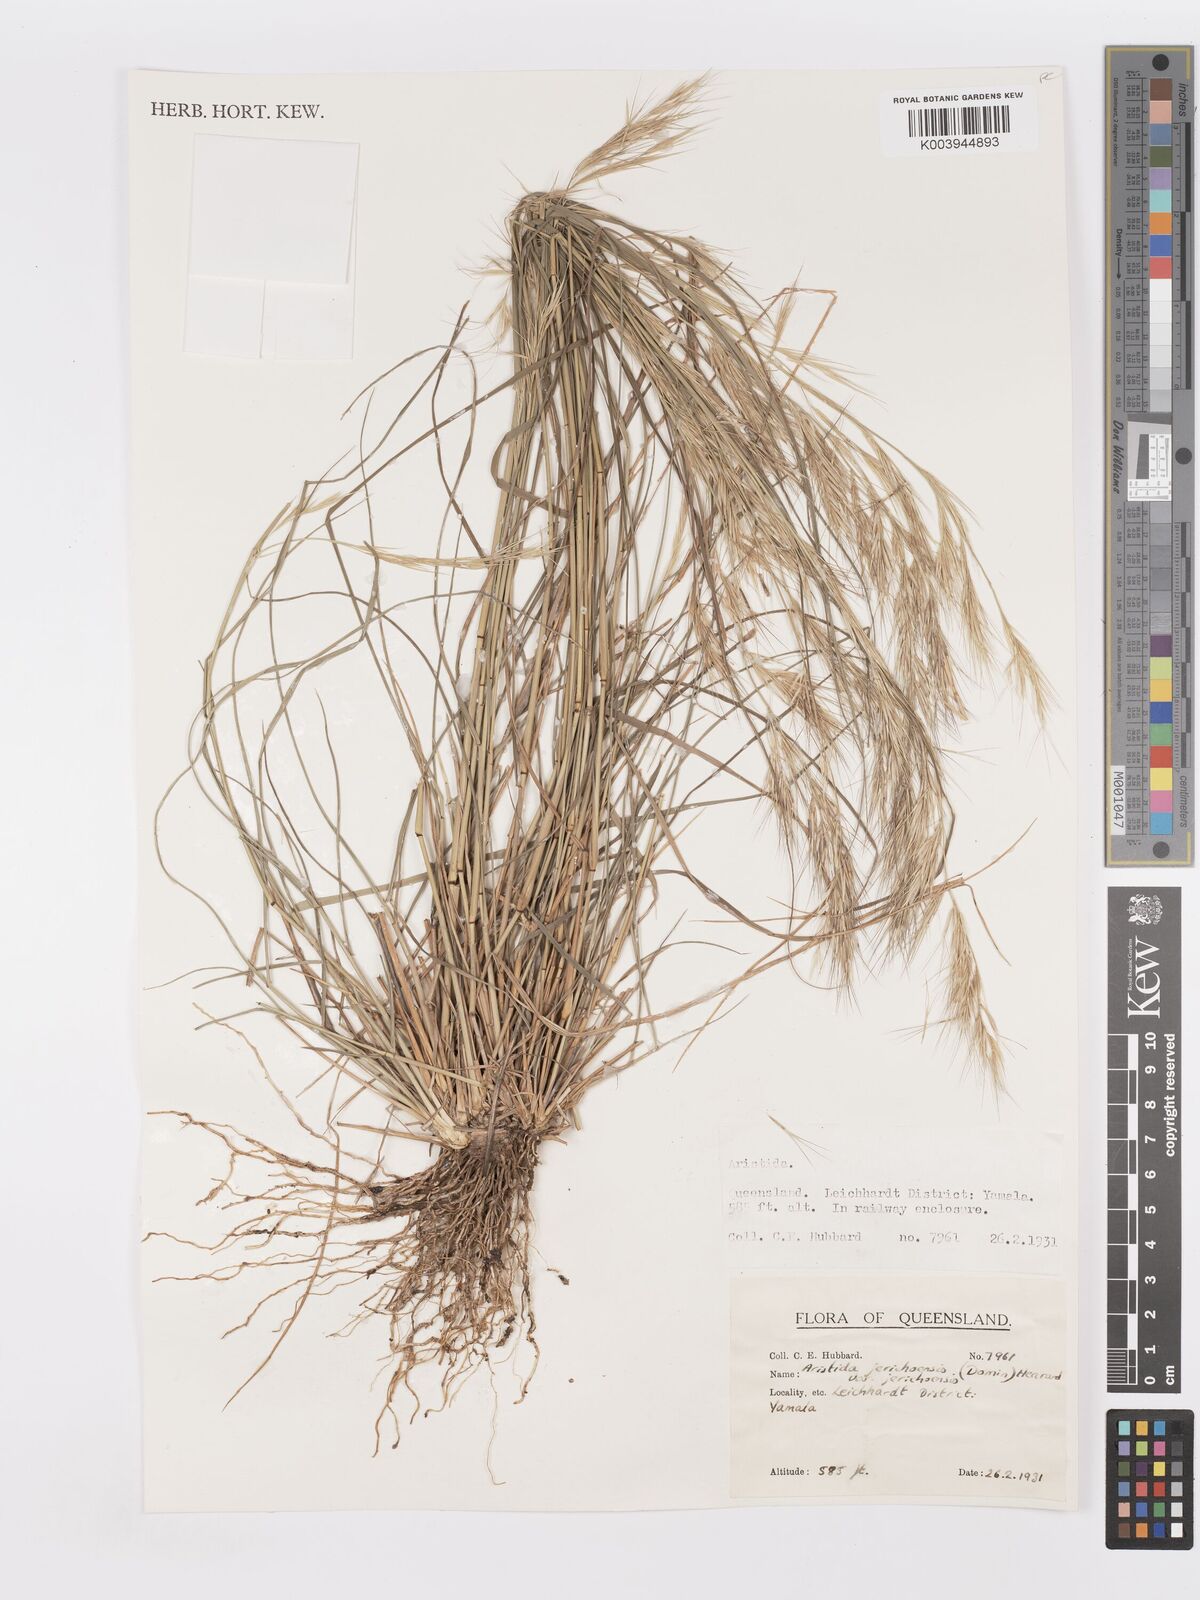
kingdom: Plantae
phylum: Tracheophyta
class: Liliopsida
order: Poales
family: Poaceae
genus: Aristida
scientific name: Aristida jerichoensis
